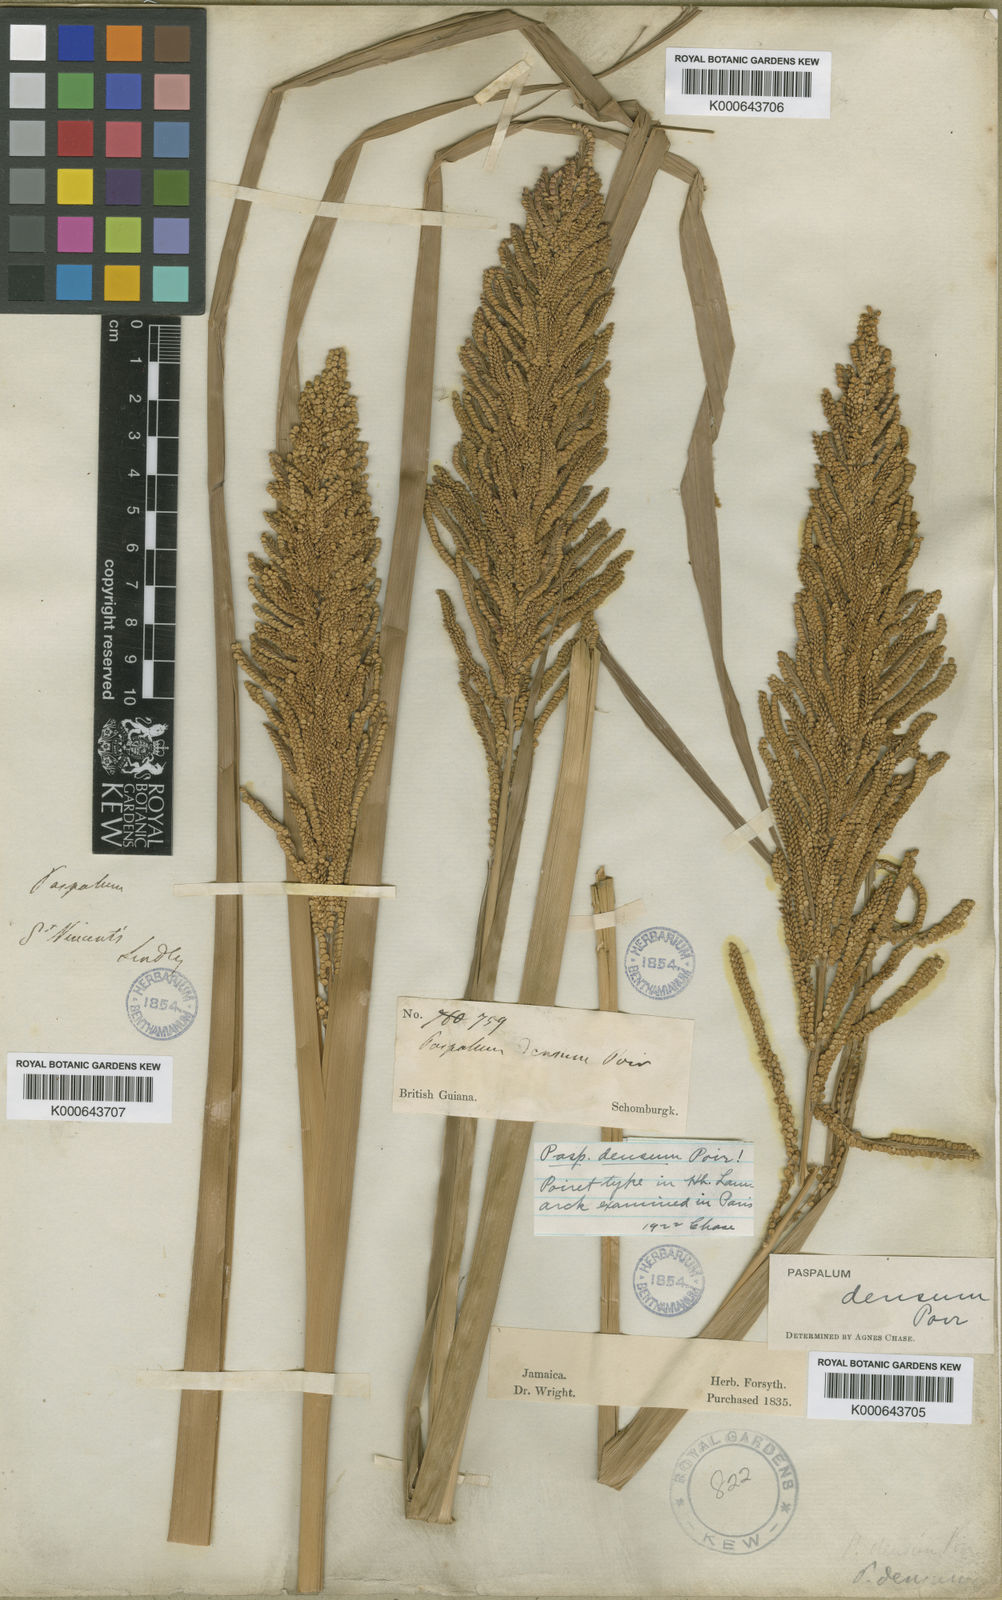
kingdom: Plantae
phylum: Tracheophyta
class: Liliopsida
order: Poales
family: Poaceae
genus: Paspalum
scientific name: Paspalum densum
